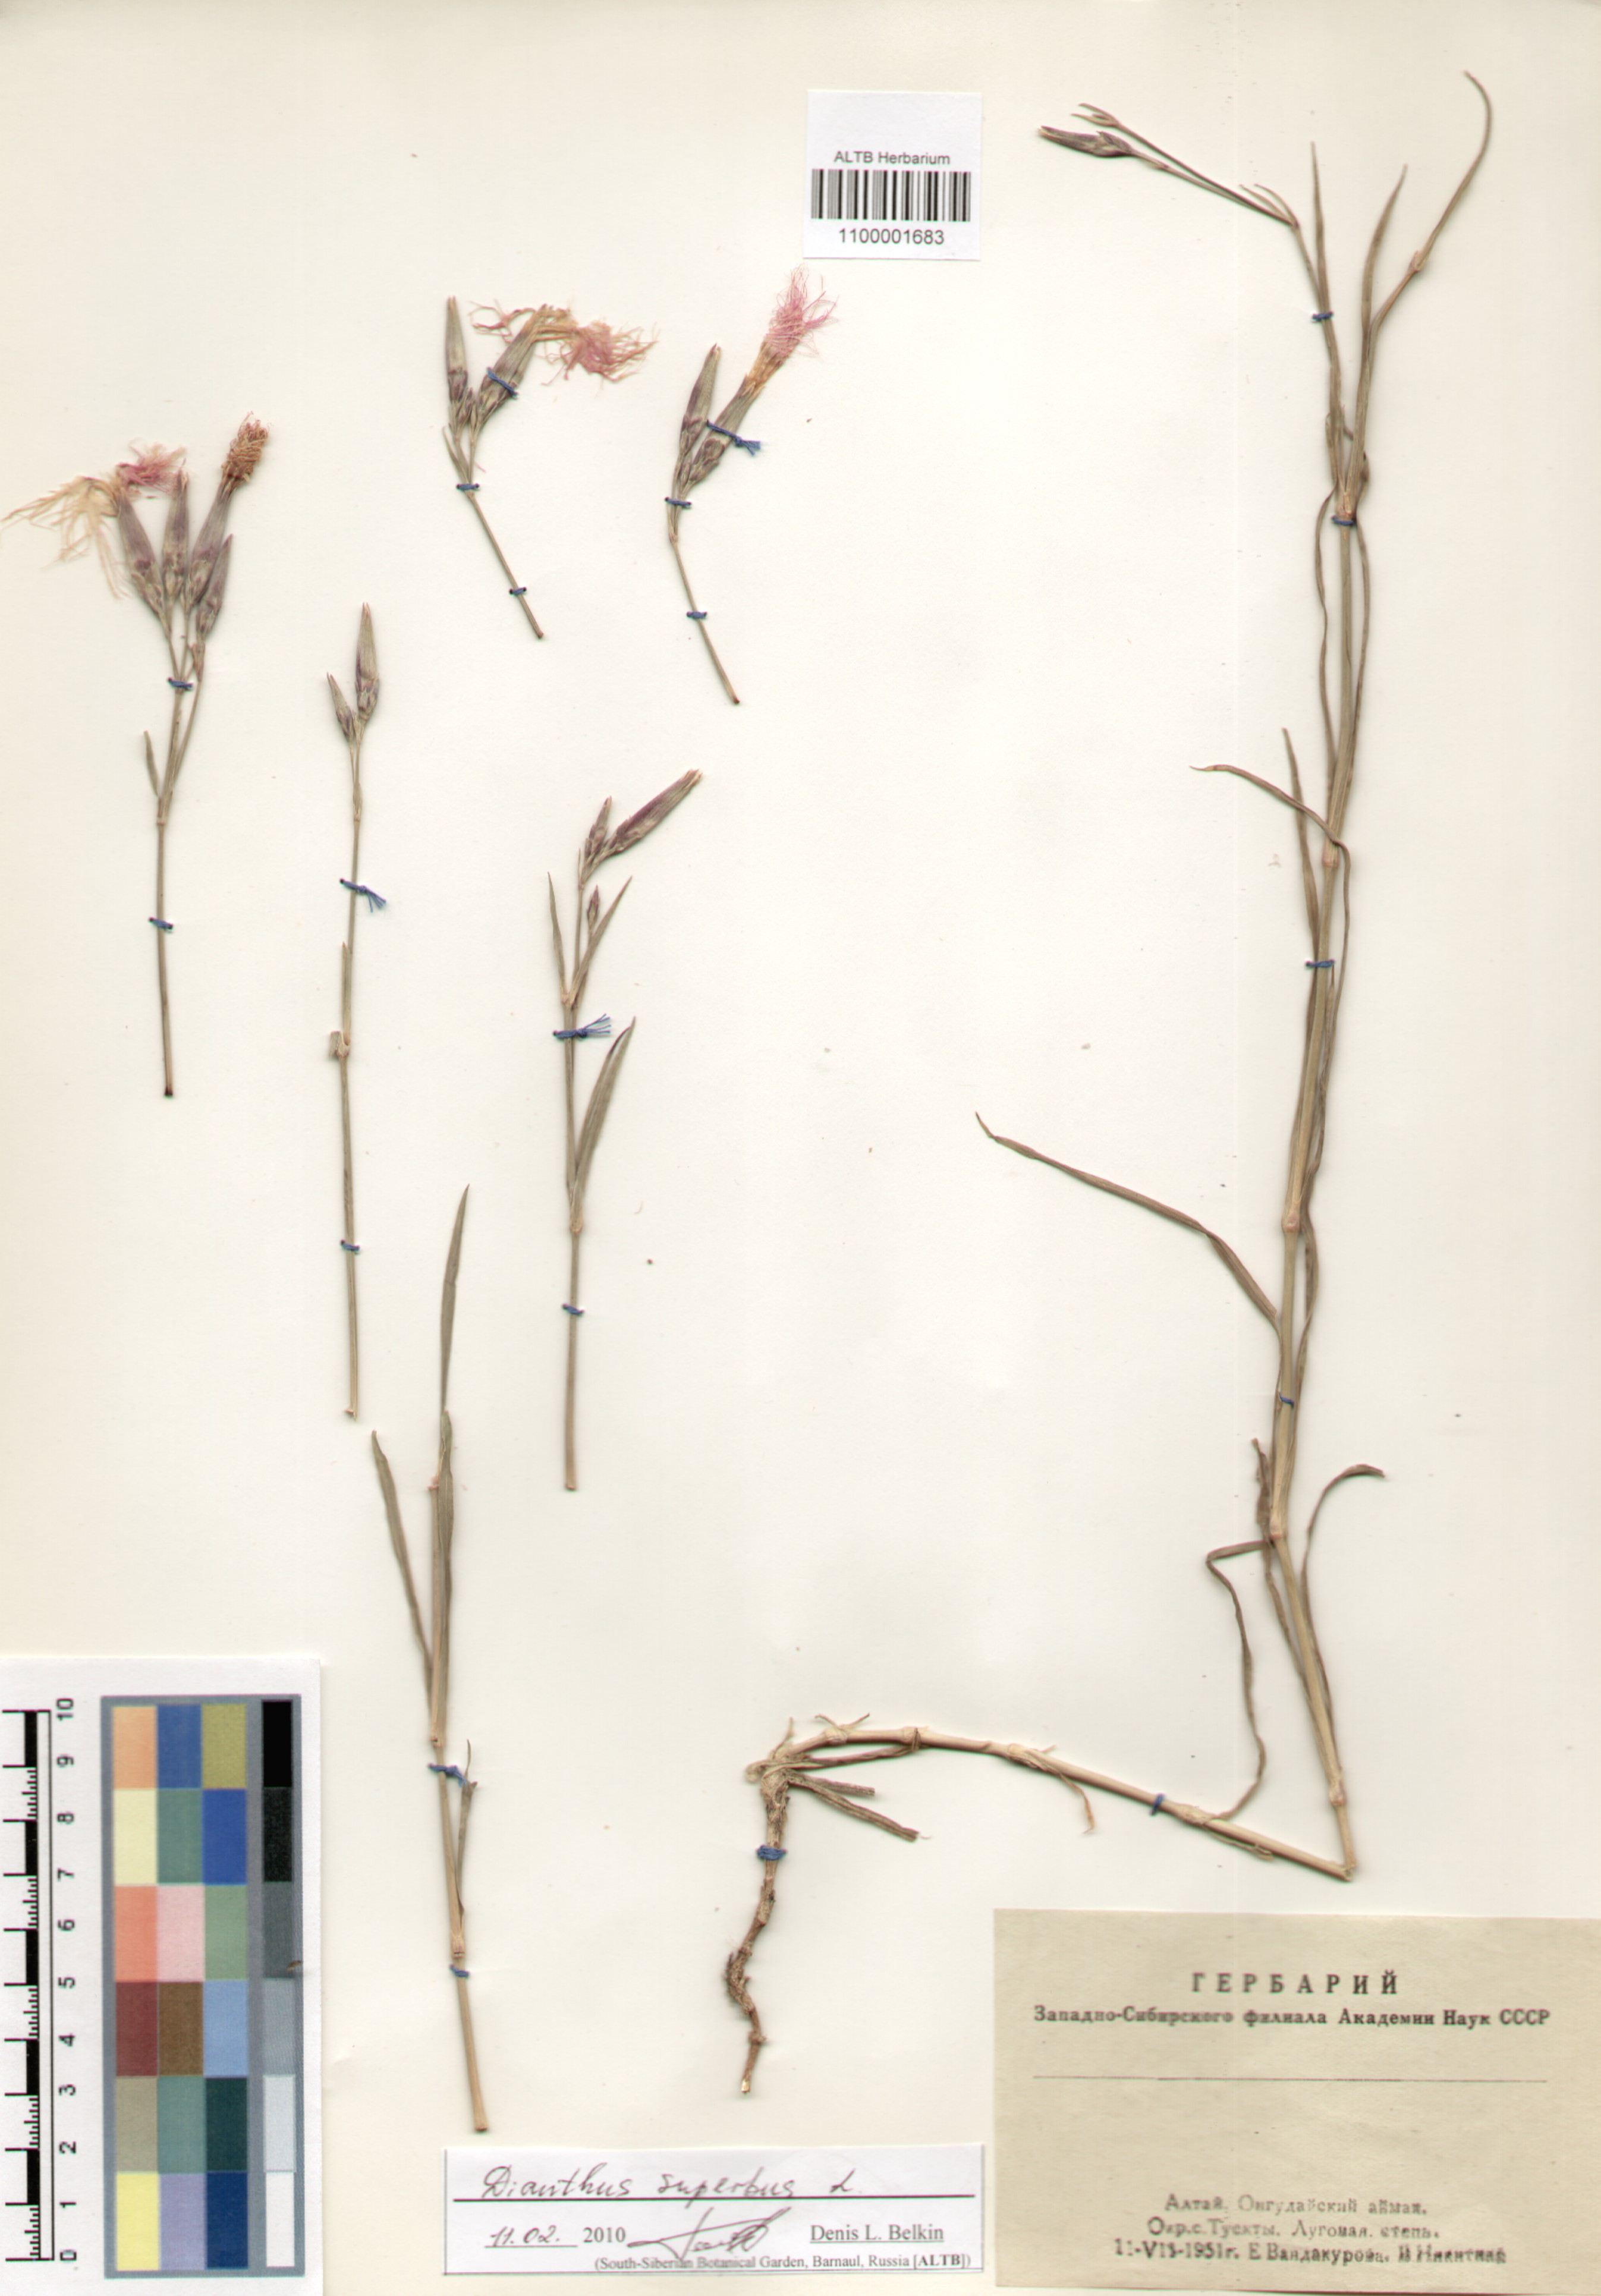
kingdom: Plantae
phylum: Tracheophyta
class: Magnoliopsida
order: Caryophyllales
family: Caryophyllaceae
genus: Dianthus
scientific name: Dianthus superbus
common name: Fringed pink
